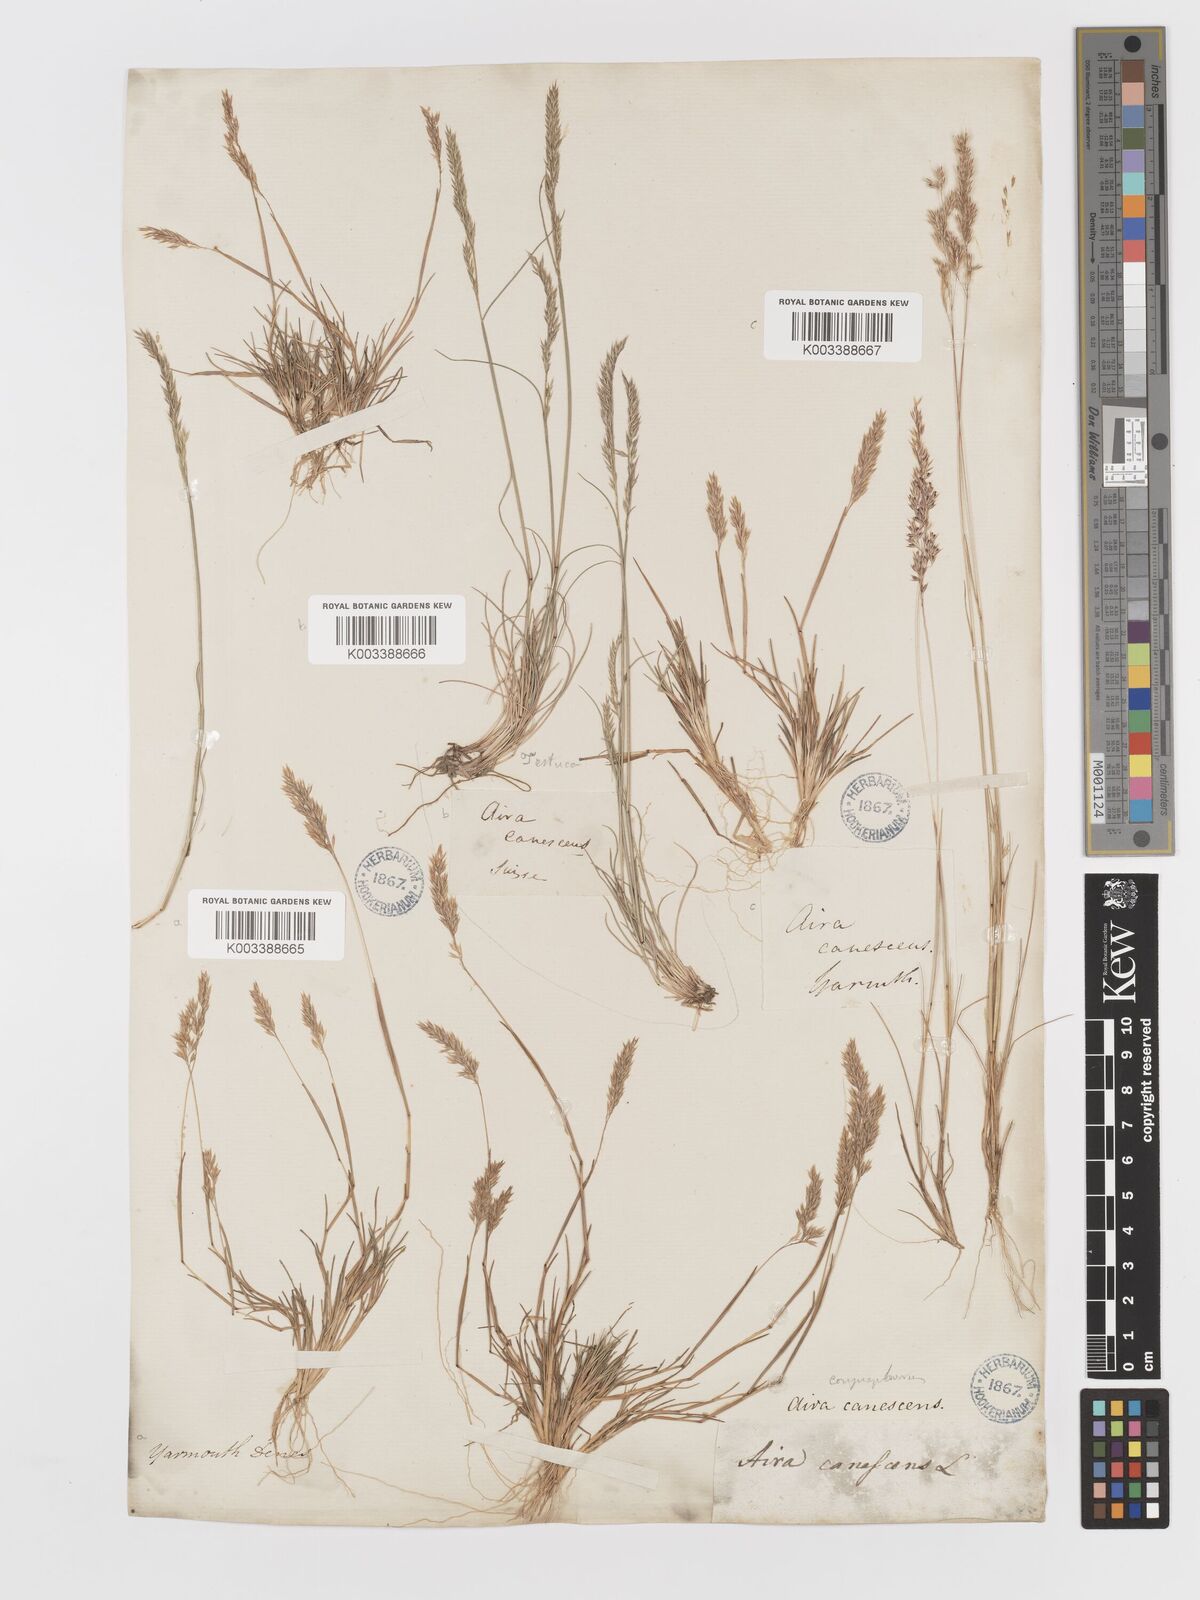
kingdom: Plantae
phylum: Tracheophyta
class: Liliopsida
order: Poales
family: Poaceae
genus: Corynephorus
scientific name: Corynephorus canescens
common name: Grey hair-grass
